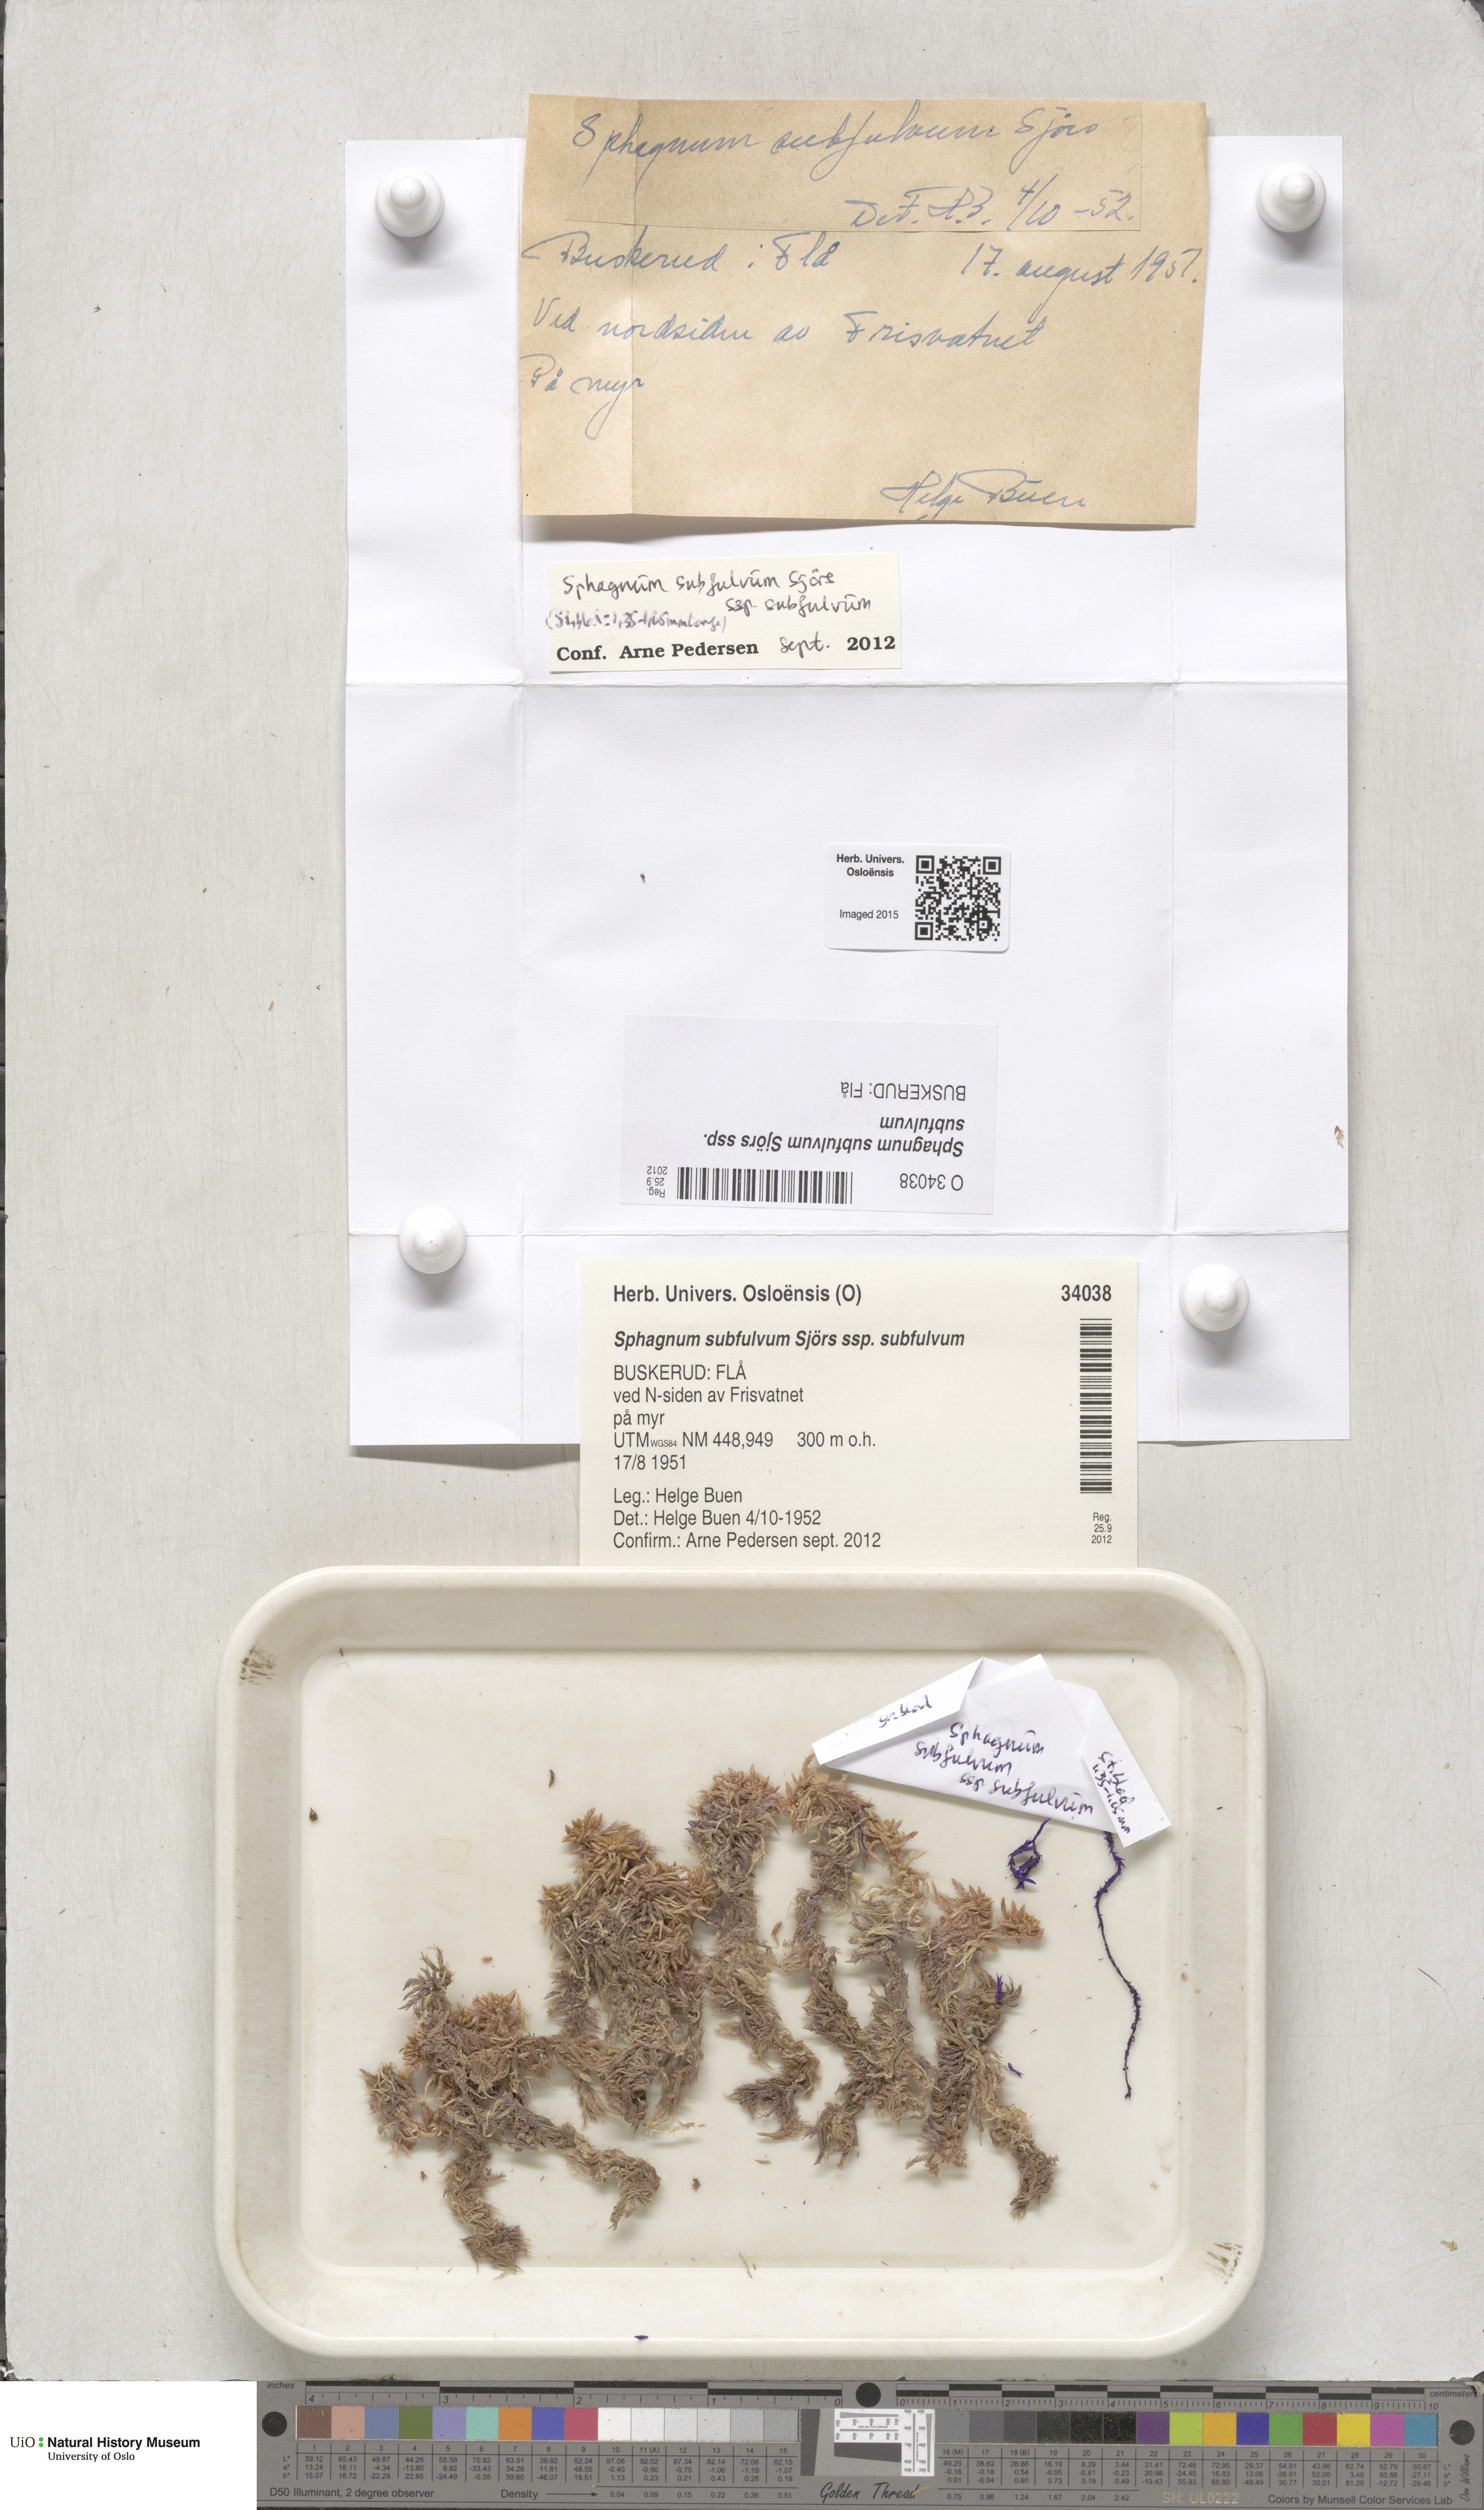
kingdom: Plantae
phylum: Bryophyta
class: Sphagnopsida
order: Sphagnales
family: Sphagnaceae
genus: Sphagnum
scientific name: Sphagnum subfulvum
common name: Fulvous peat moss
